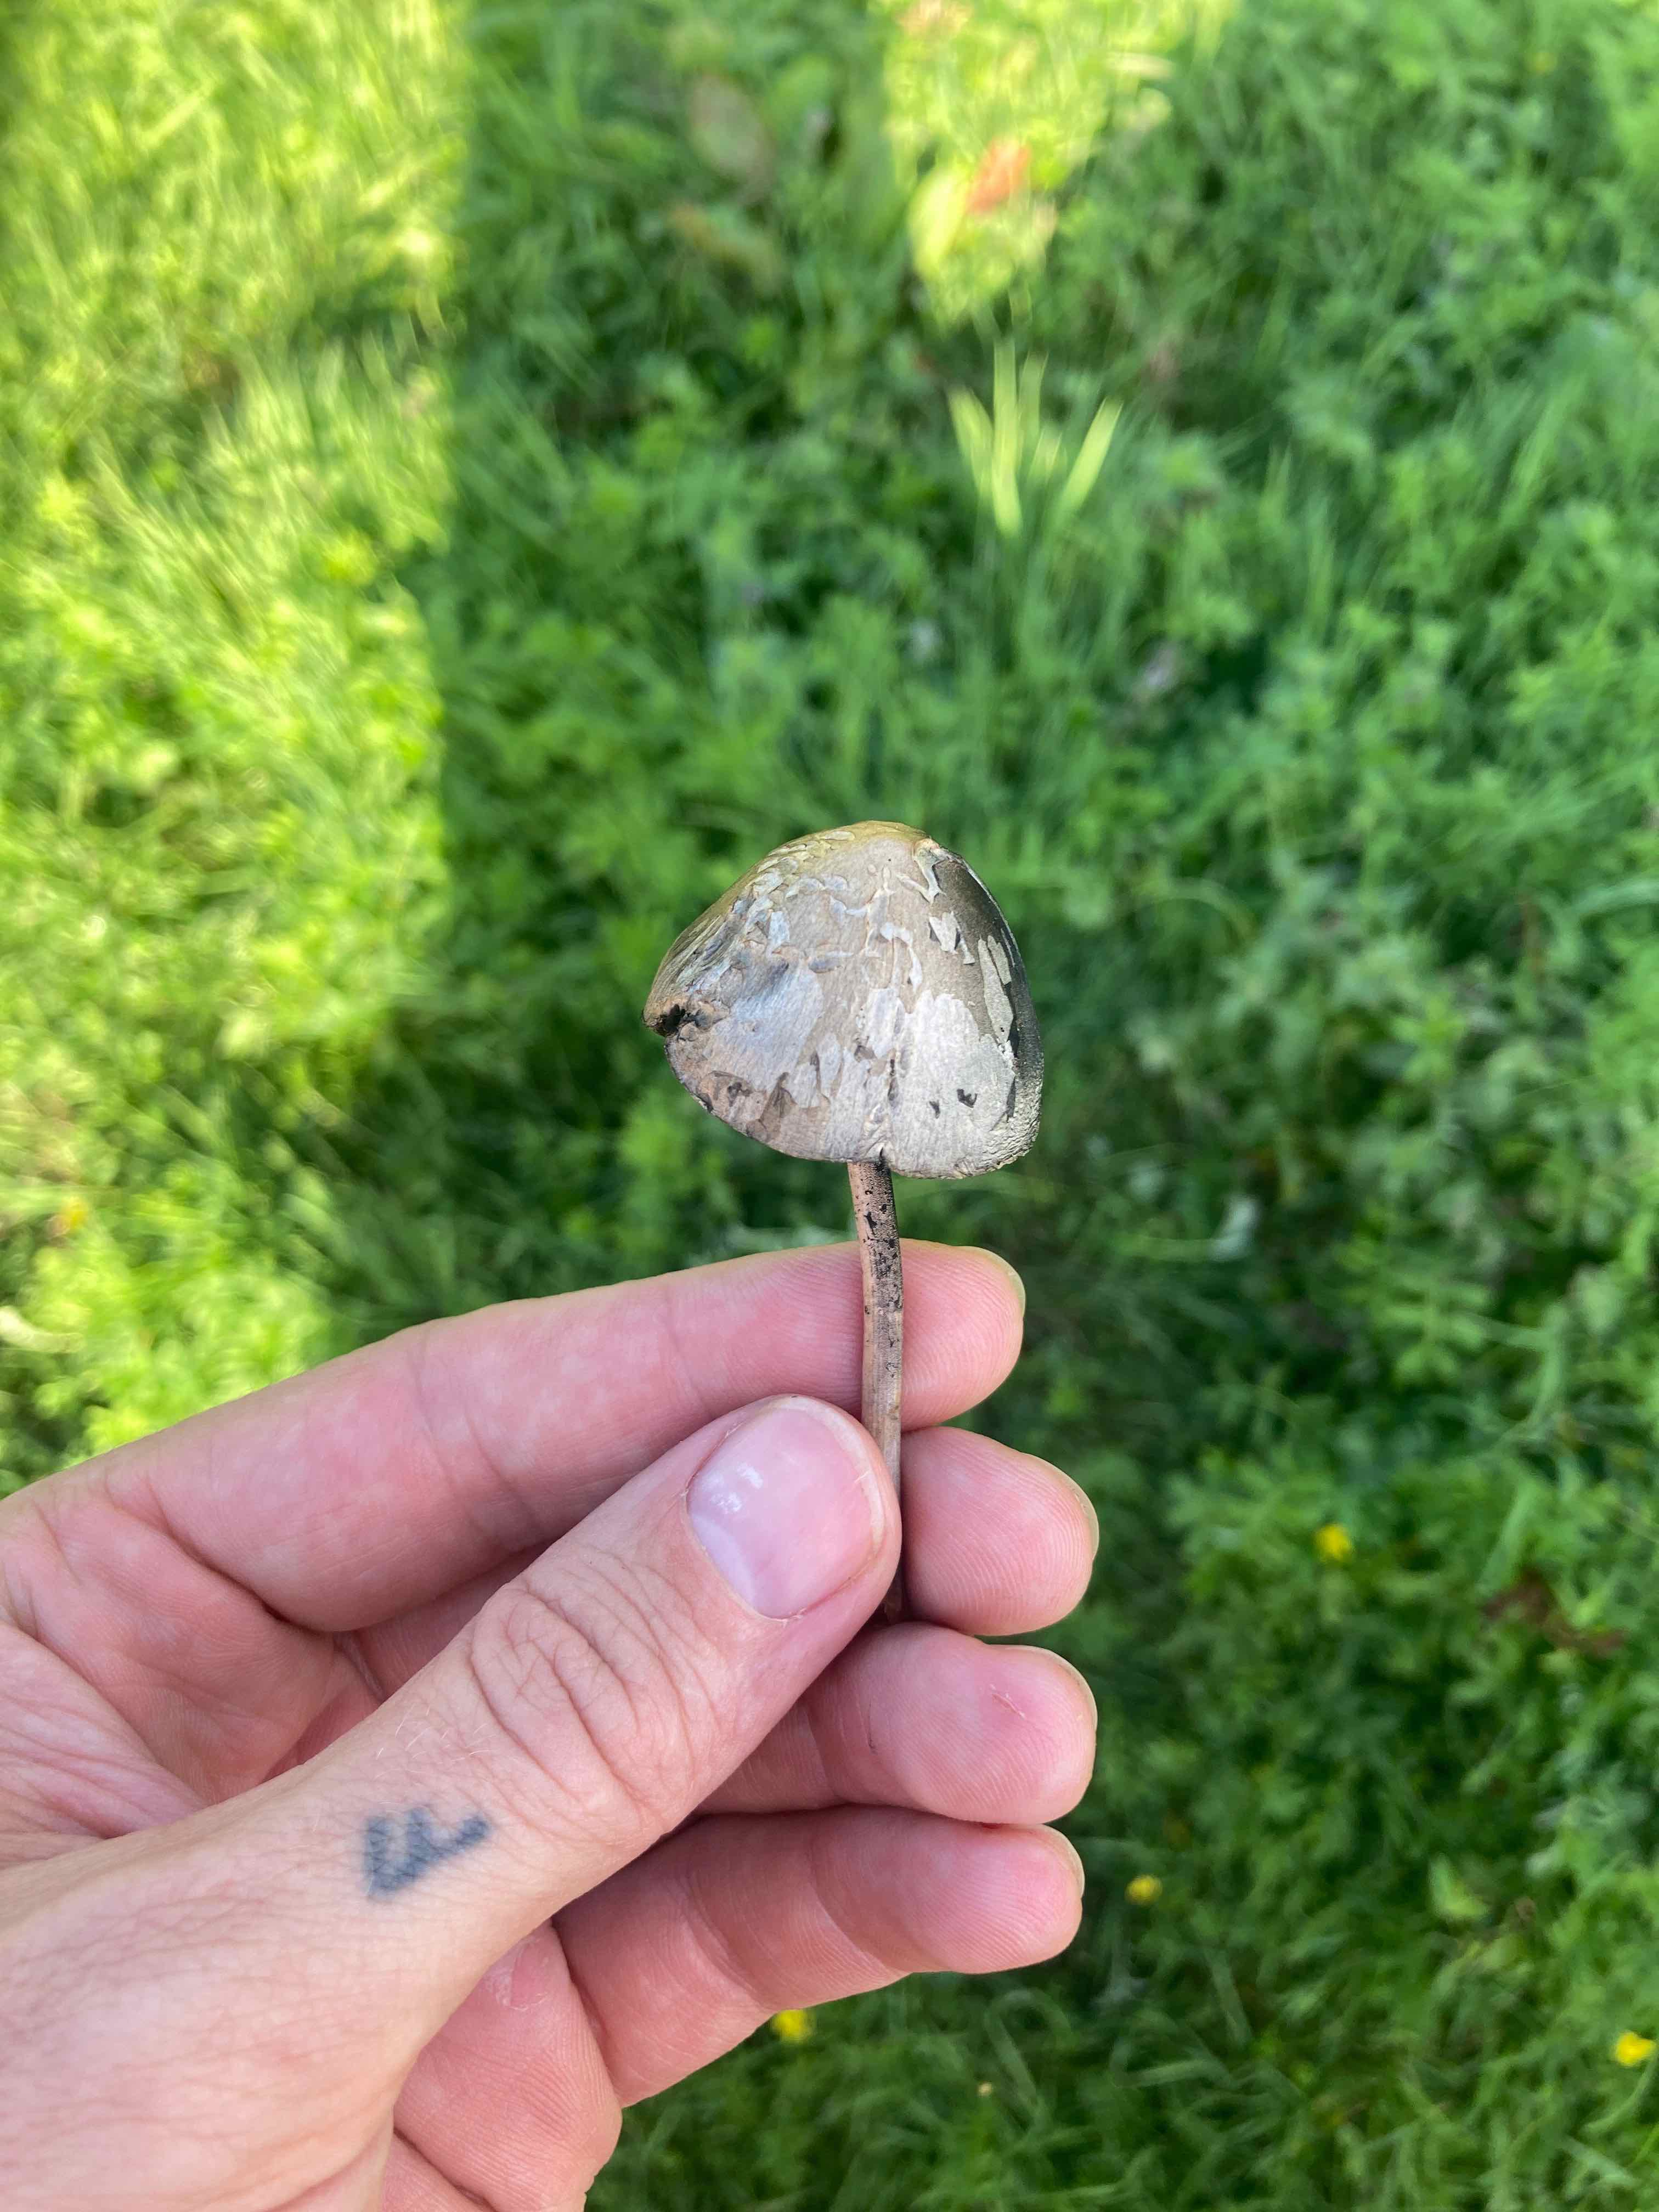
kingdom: Fungi
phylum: Basidiomycota
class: Agaricomycetes
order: Agaricales
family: Bolbitiaceae
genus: Panaeolus
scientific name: Panaeolus
